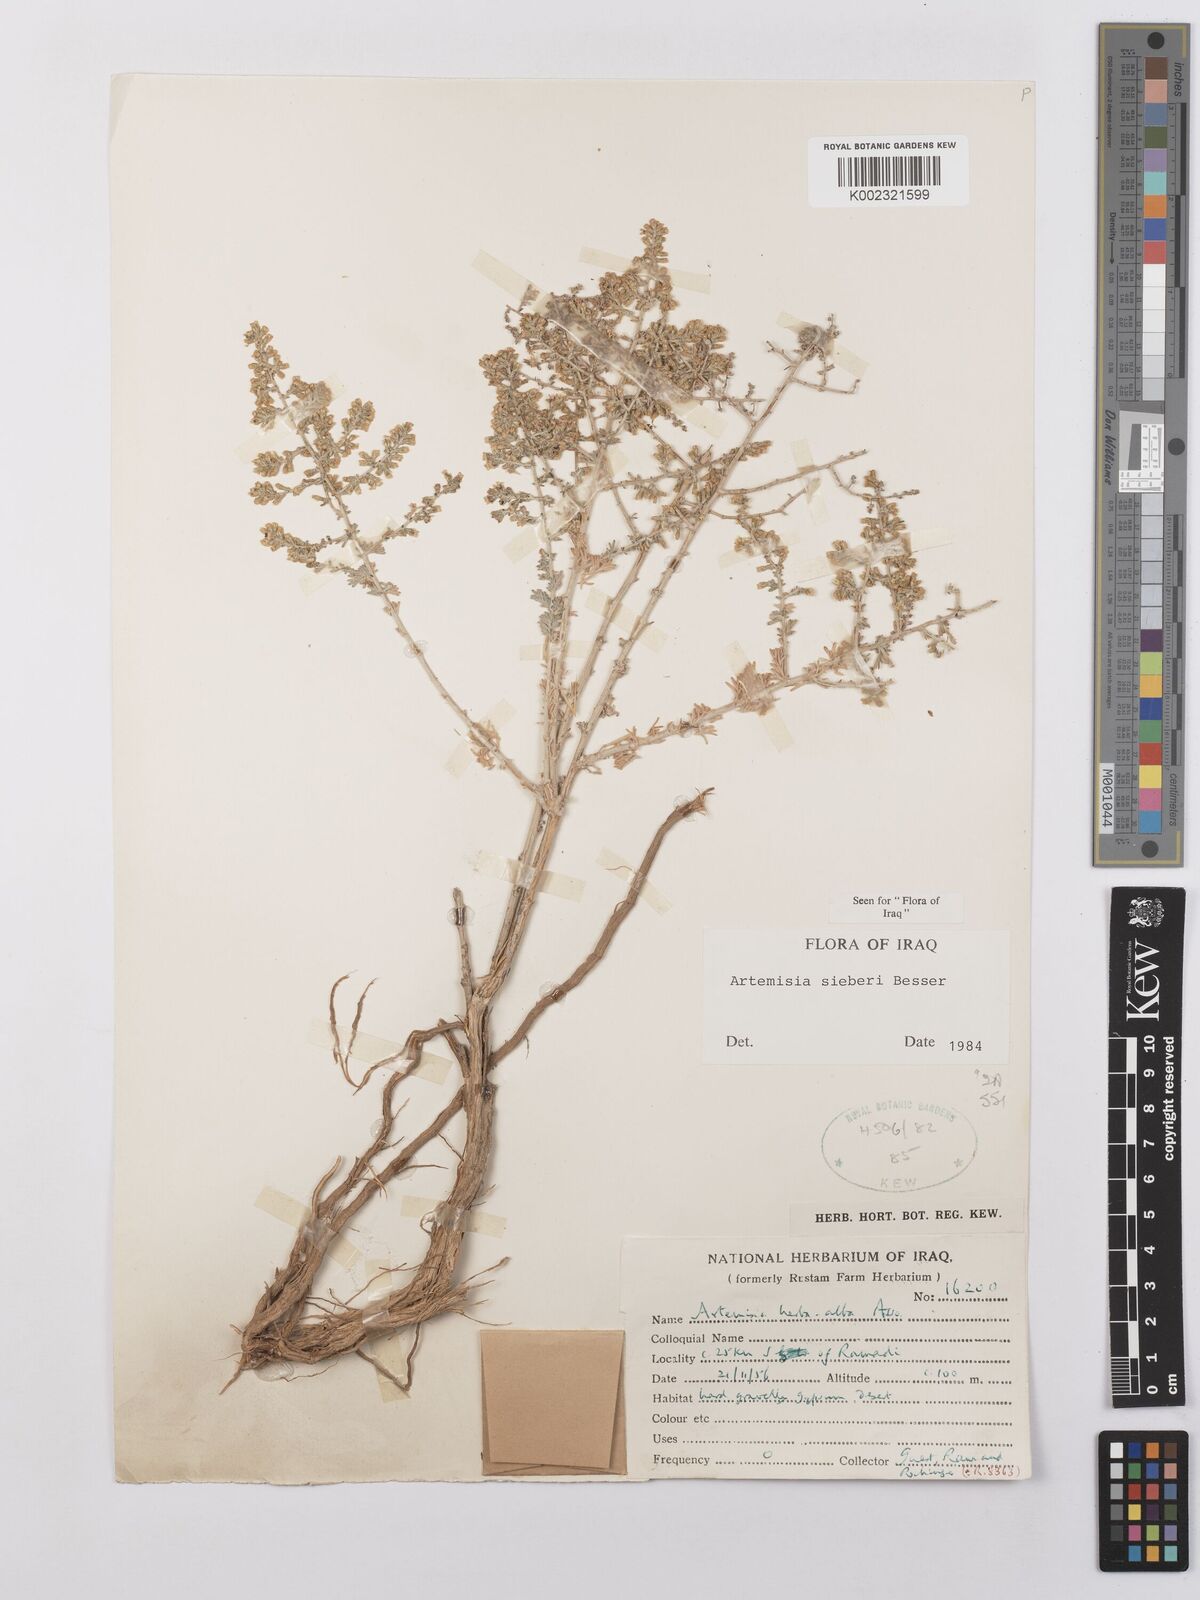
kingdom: Plantae
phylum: Tracheophyta
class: Magnoliopsida
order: Asterales
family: Asteraceae
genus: Artemisia
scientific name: Artemisia sieberi
